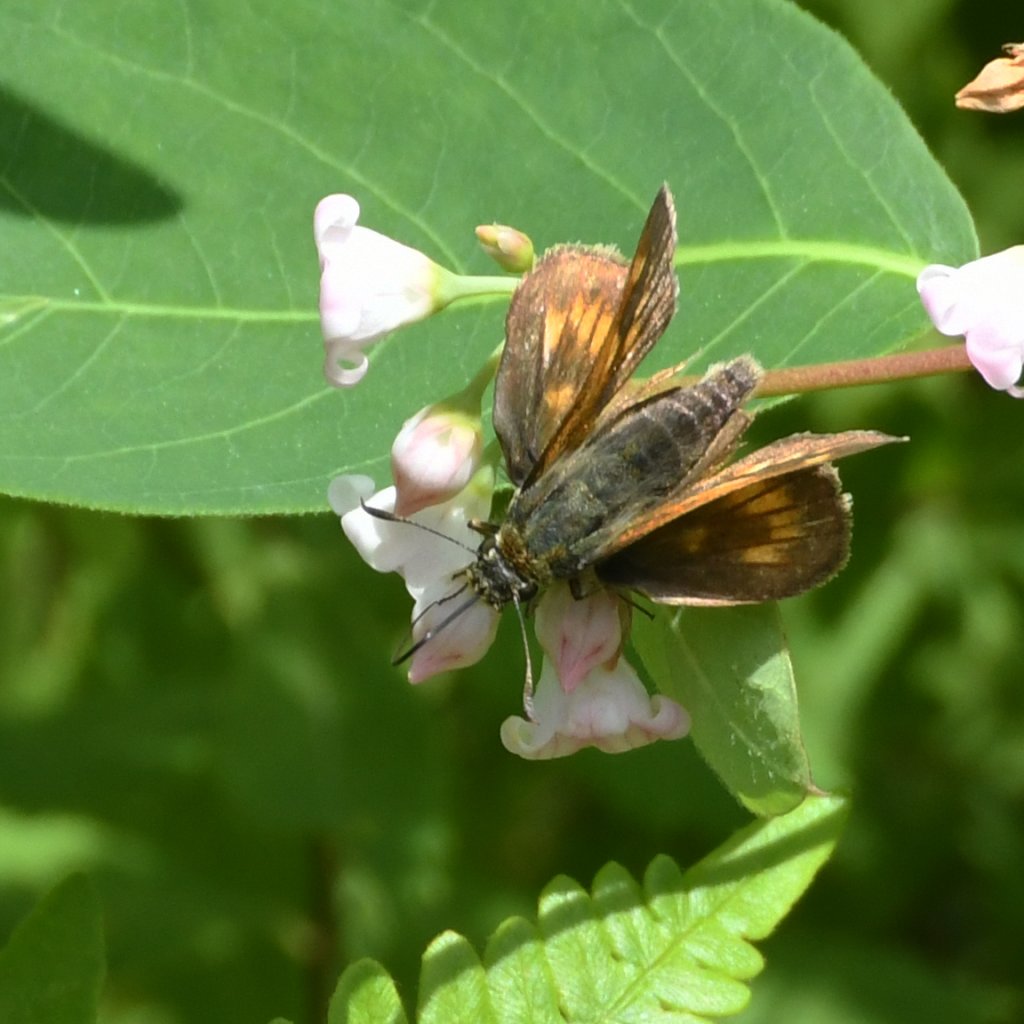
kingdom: Animalia
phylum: Arthropoda
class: Insecta
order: Lepidoptera
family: Hesperiidae
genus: Polites
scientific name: Polites
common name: Long Dash Skipper
